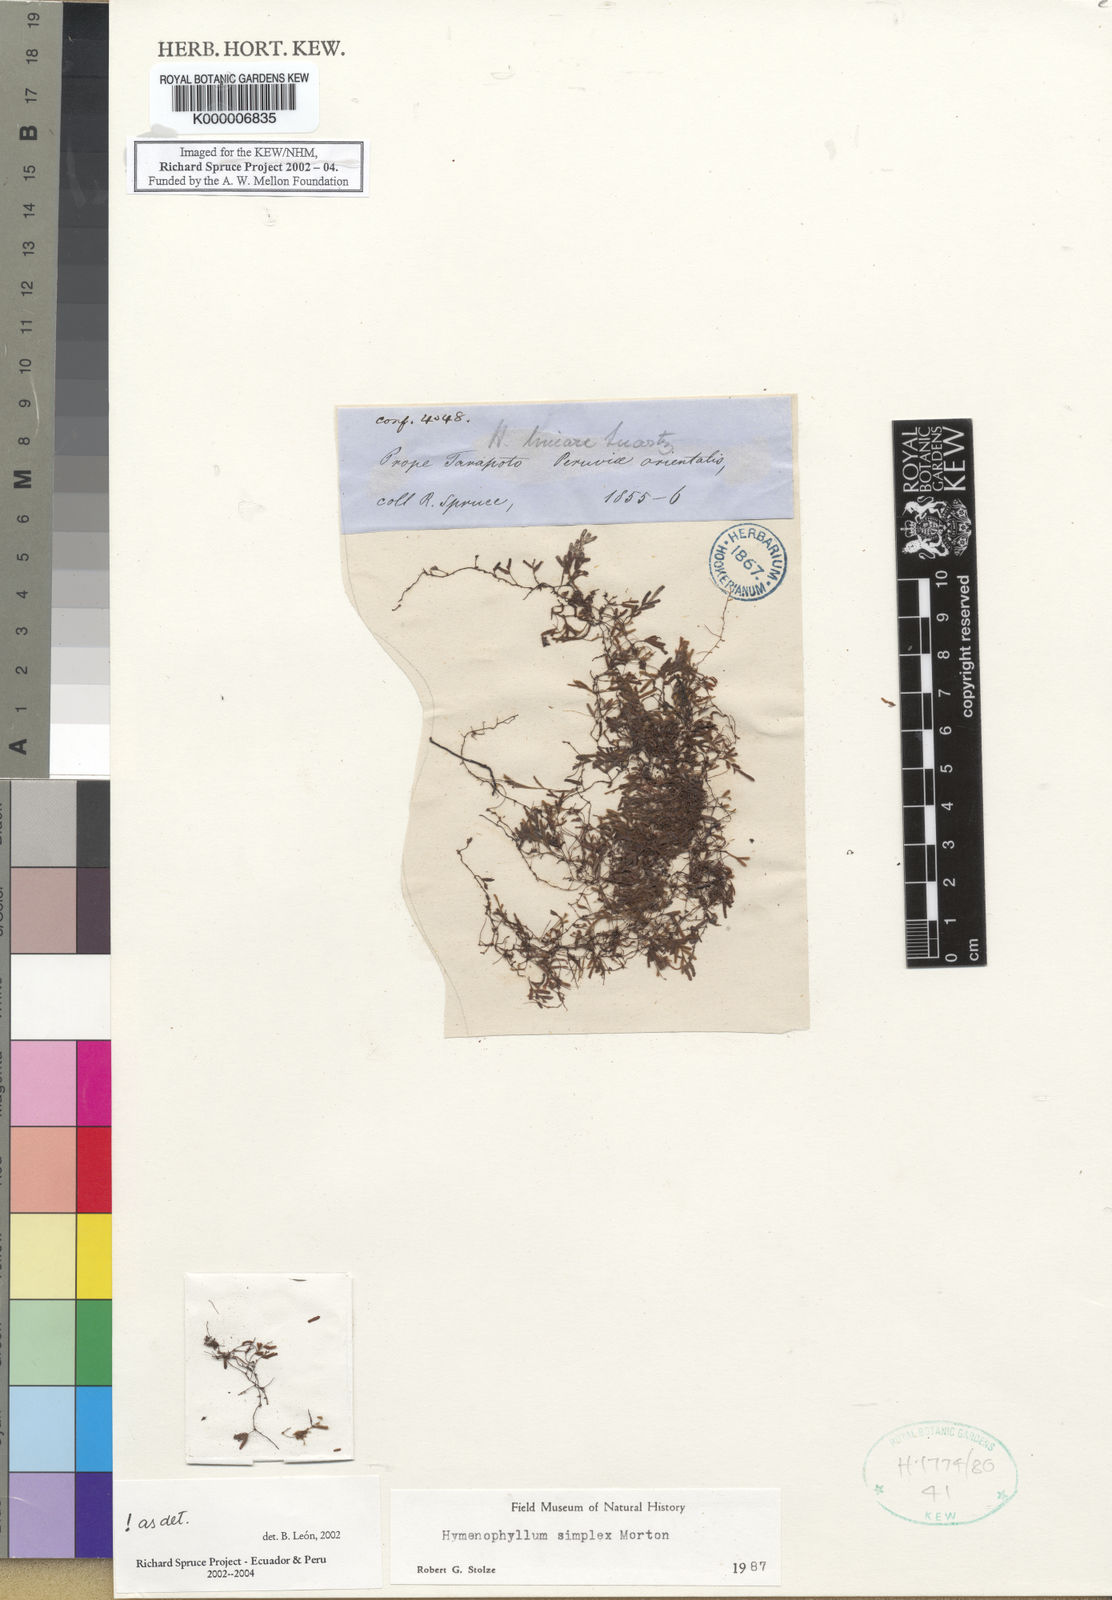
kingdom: Plantae
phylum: Tracheophyta
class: Polypodiopsida
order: Hymenophyllales
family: Hymenophyllaceae
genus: Hymenophyllum
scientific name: Hymenophyllum simplex
